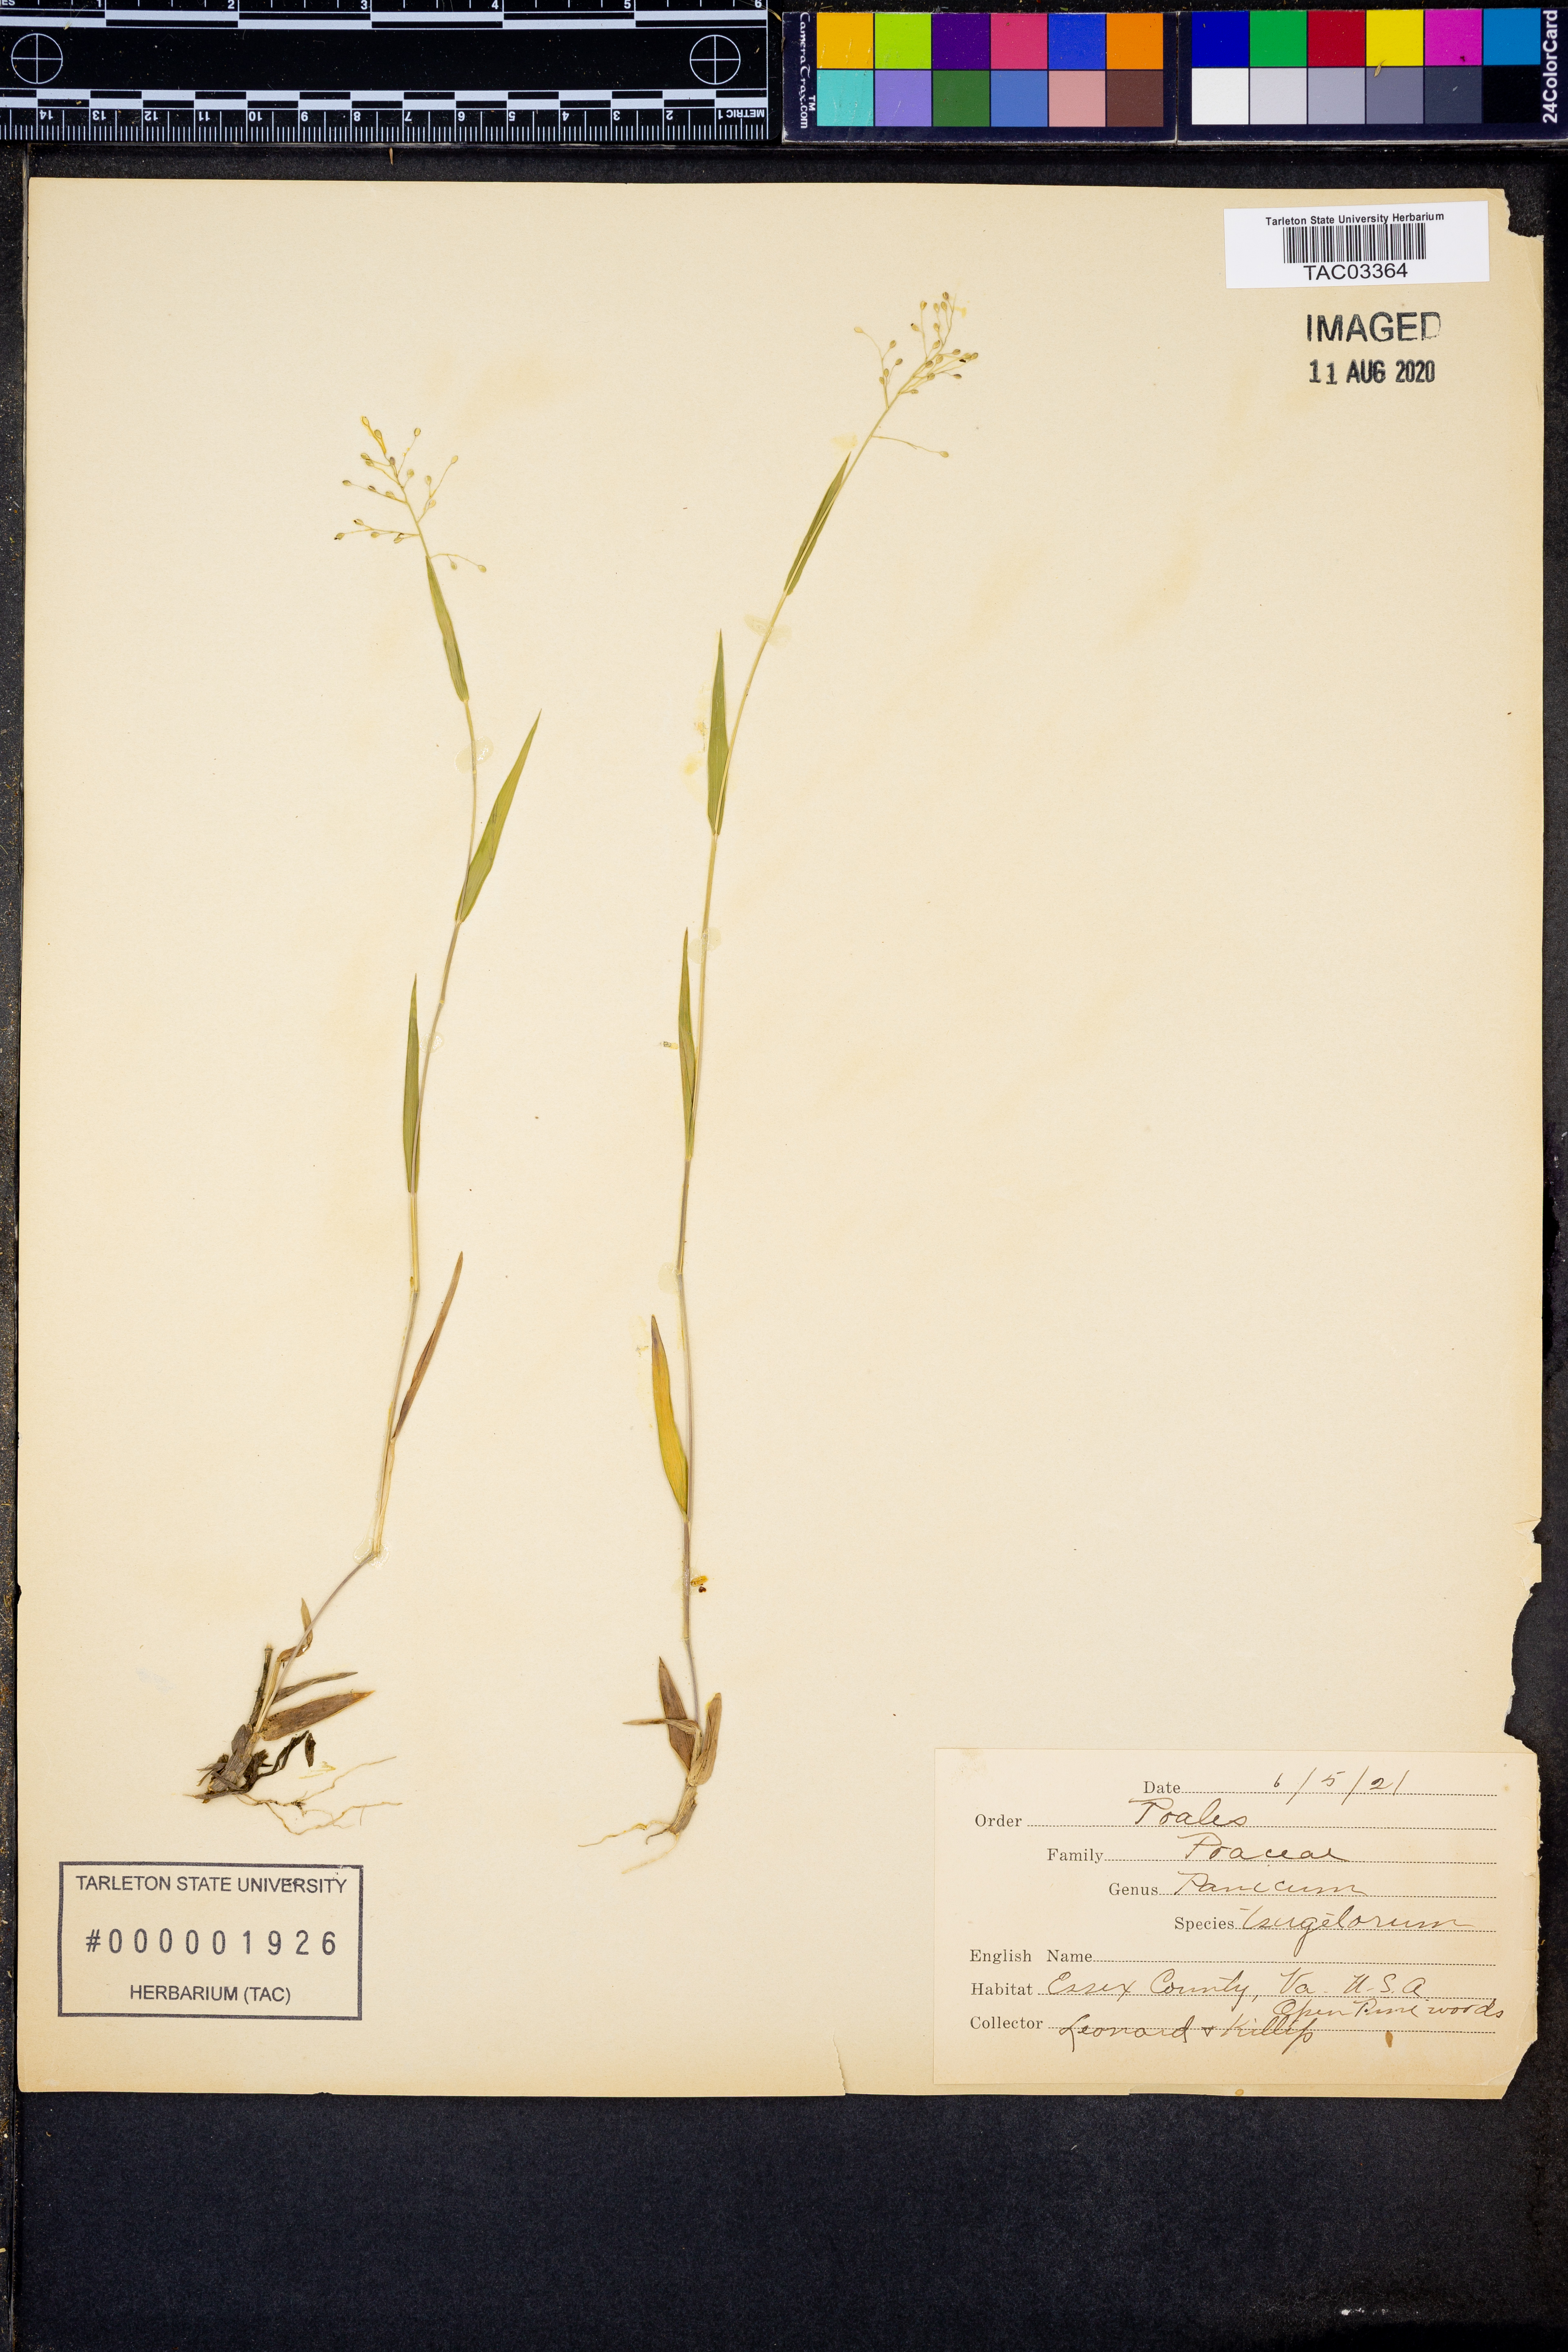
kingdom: Plantae
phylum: Tracheophyta
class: Liliopsida
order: Poales
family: Poaceae
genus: Dichanthelium
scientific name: Dichanthelium columbianum
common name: Hemlock panic grass
